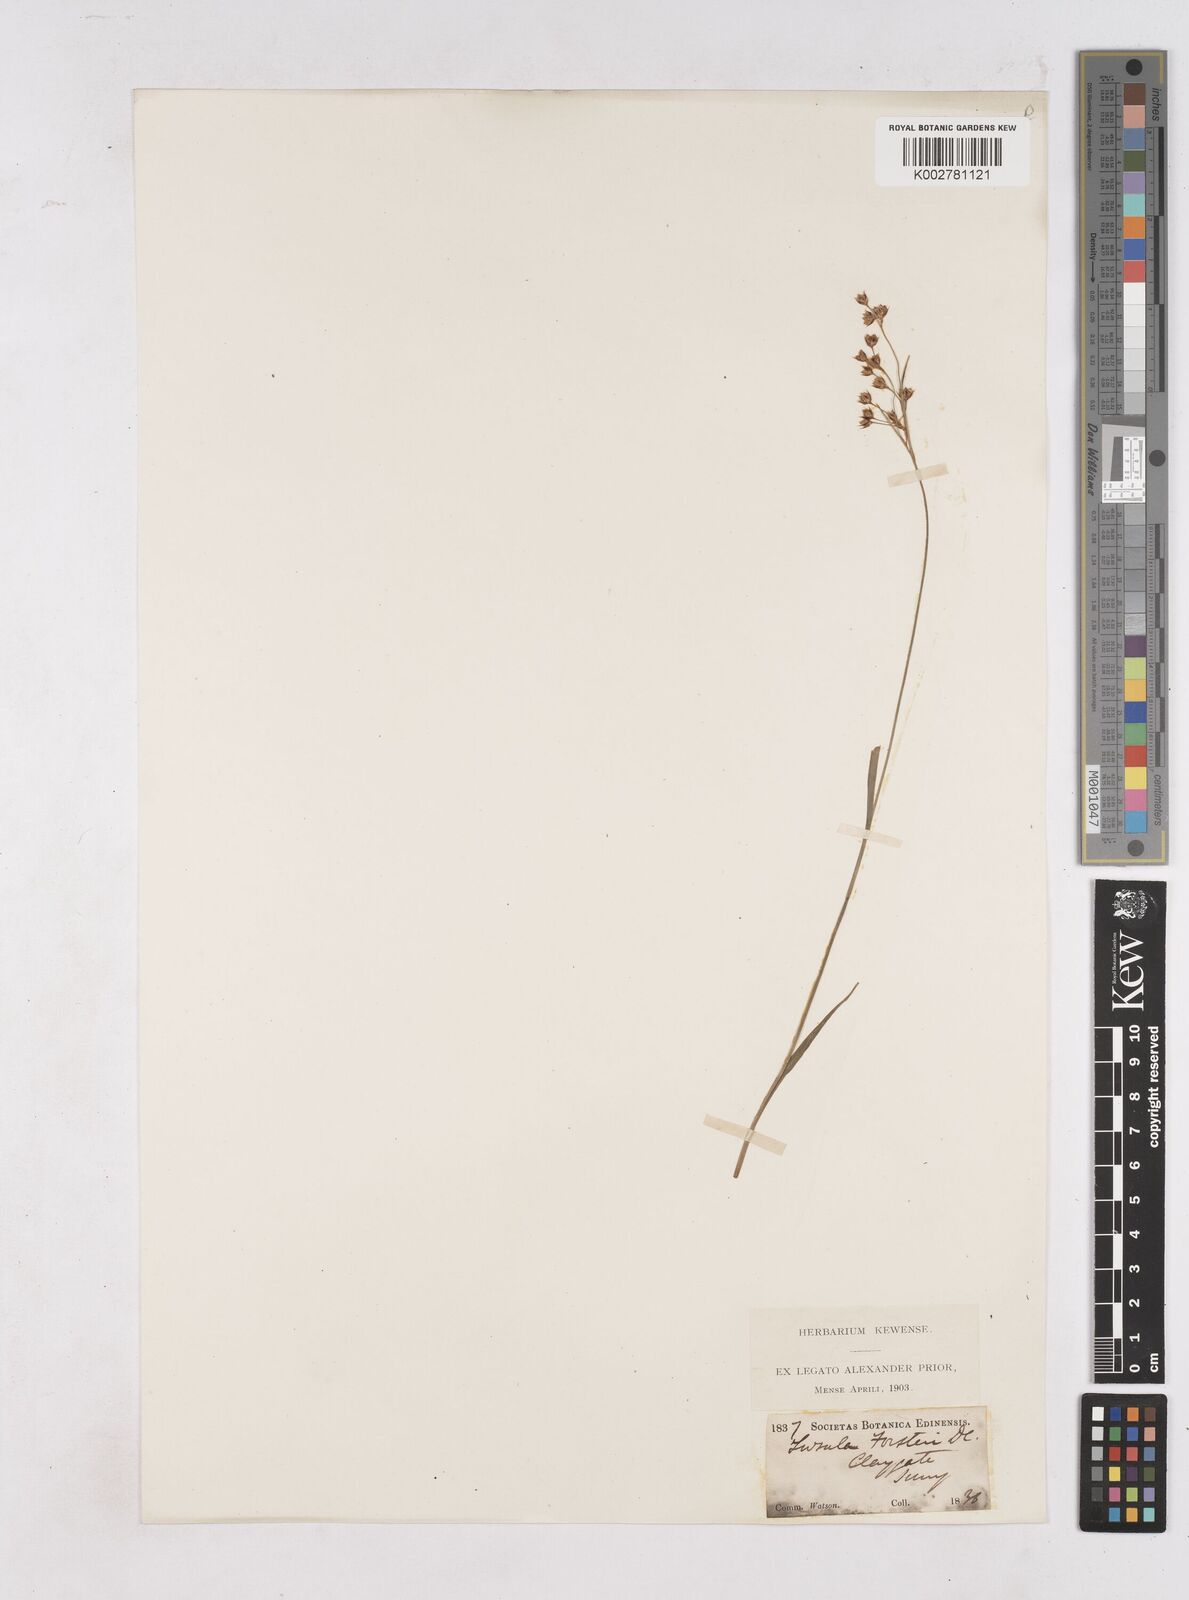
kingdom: Plantae
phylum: Tracheophyta
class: Liliopsida
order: Poales
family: Juncaceae
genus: Luzula
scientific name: Luzula forsteri
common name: Southern wood-rush
